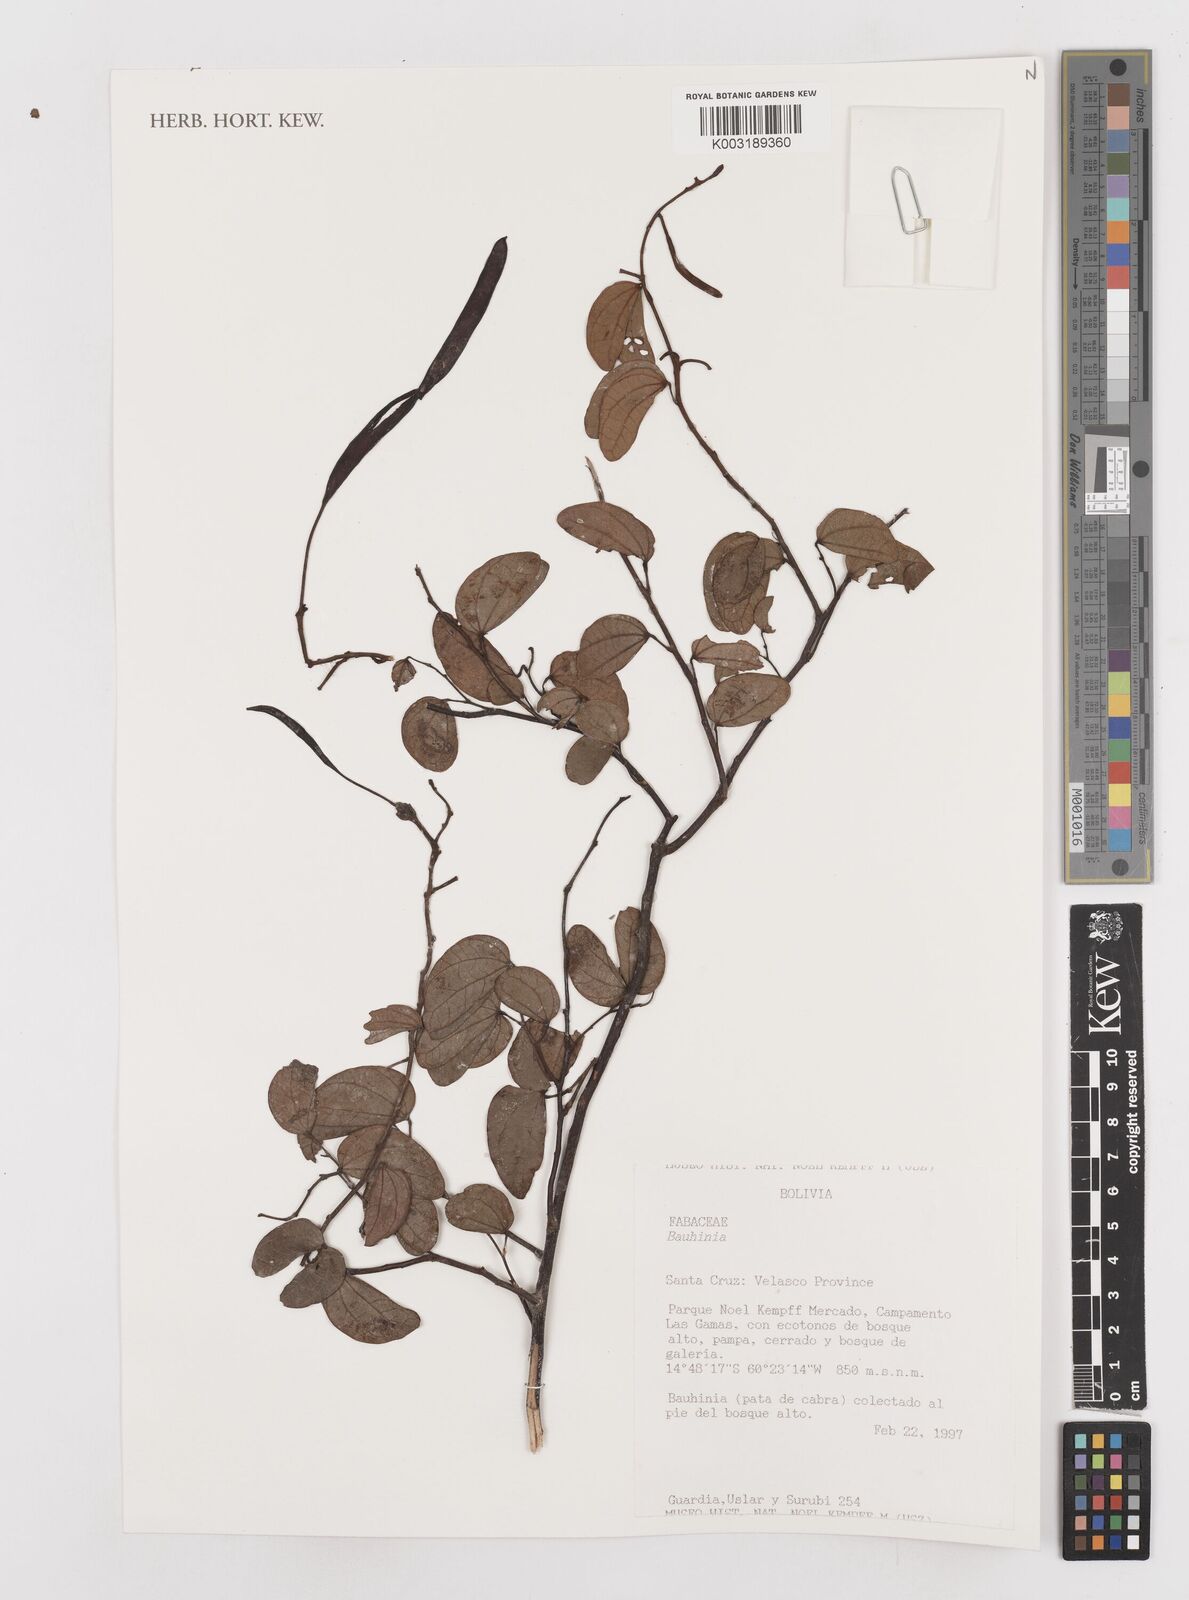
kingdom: Plantae
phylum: Tracheophyta
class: Magnoliopsida
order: Fabales
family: Fabaceae
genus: Bauhinia
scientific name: Bauhinia
